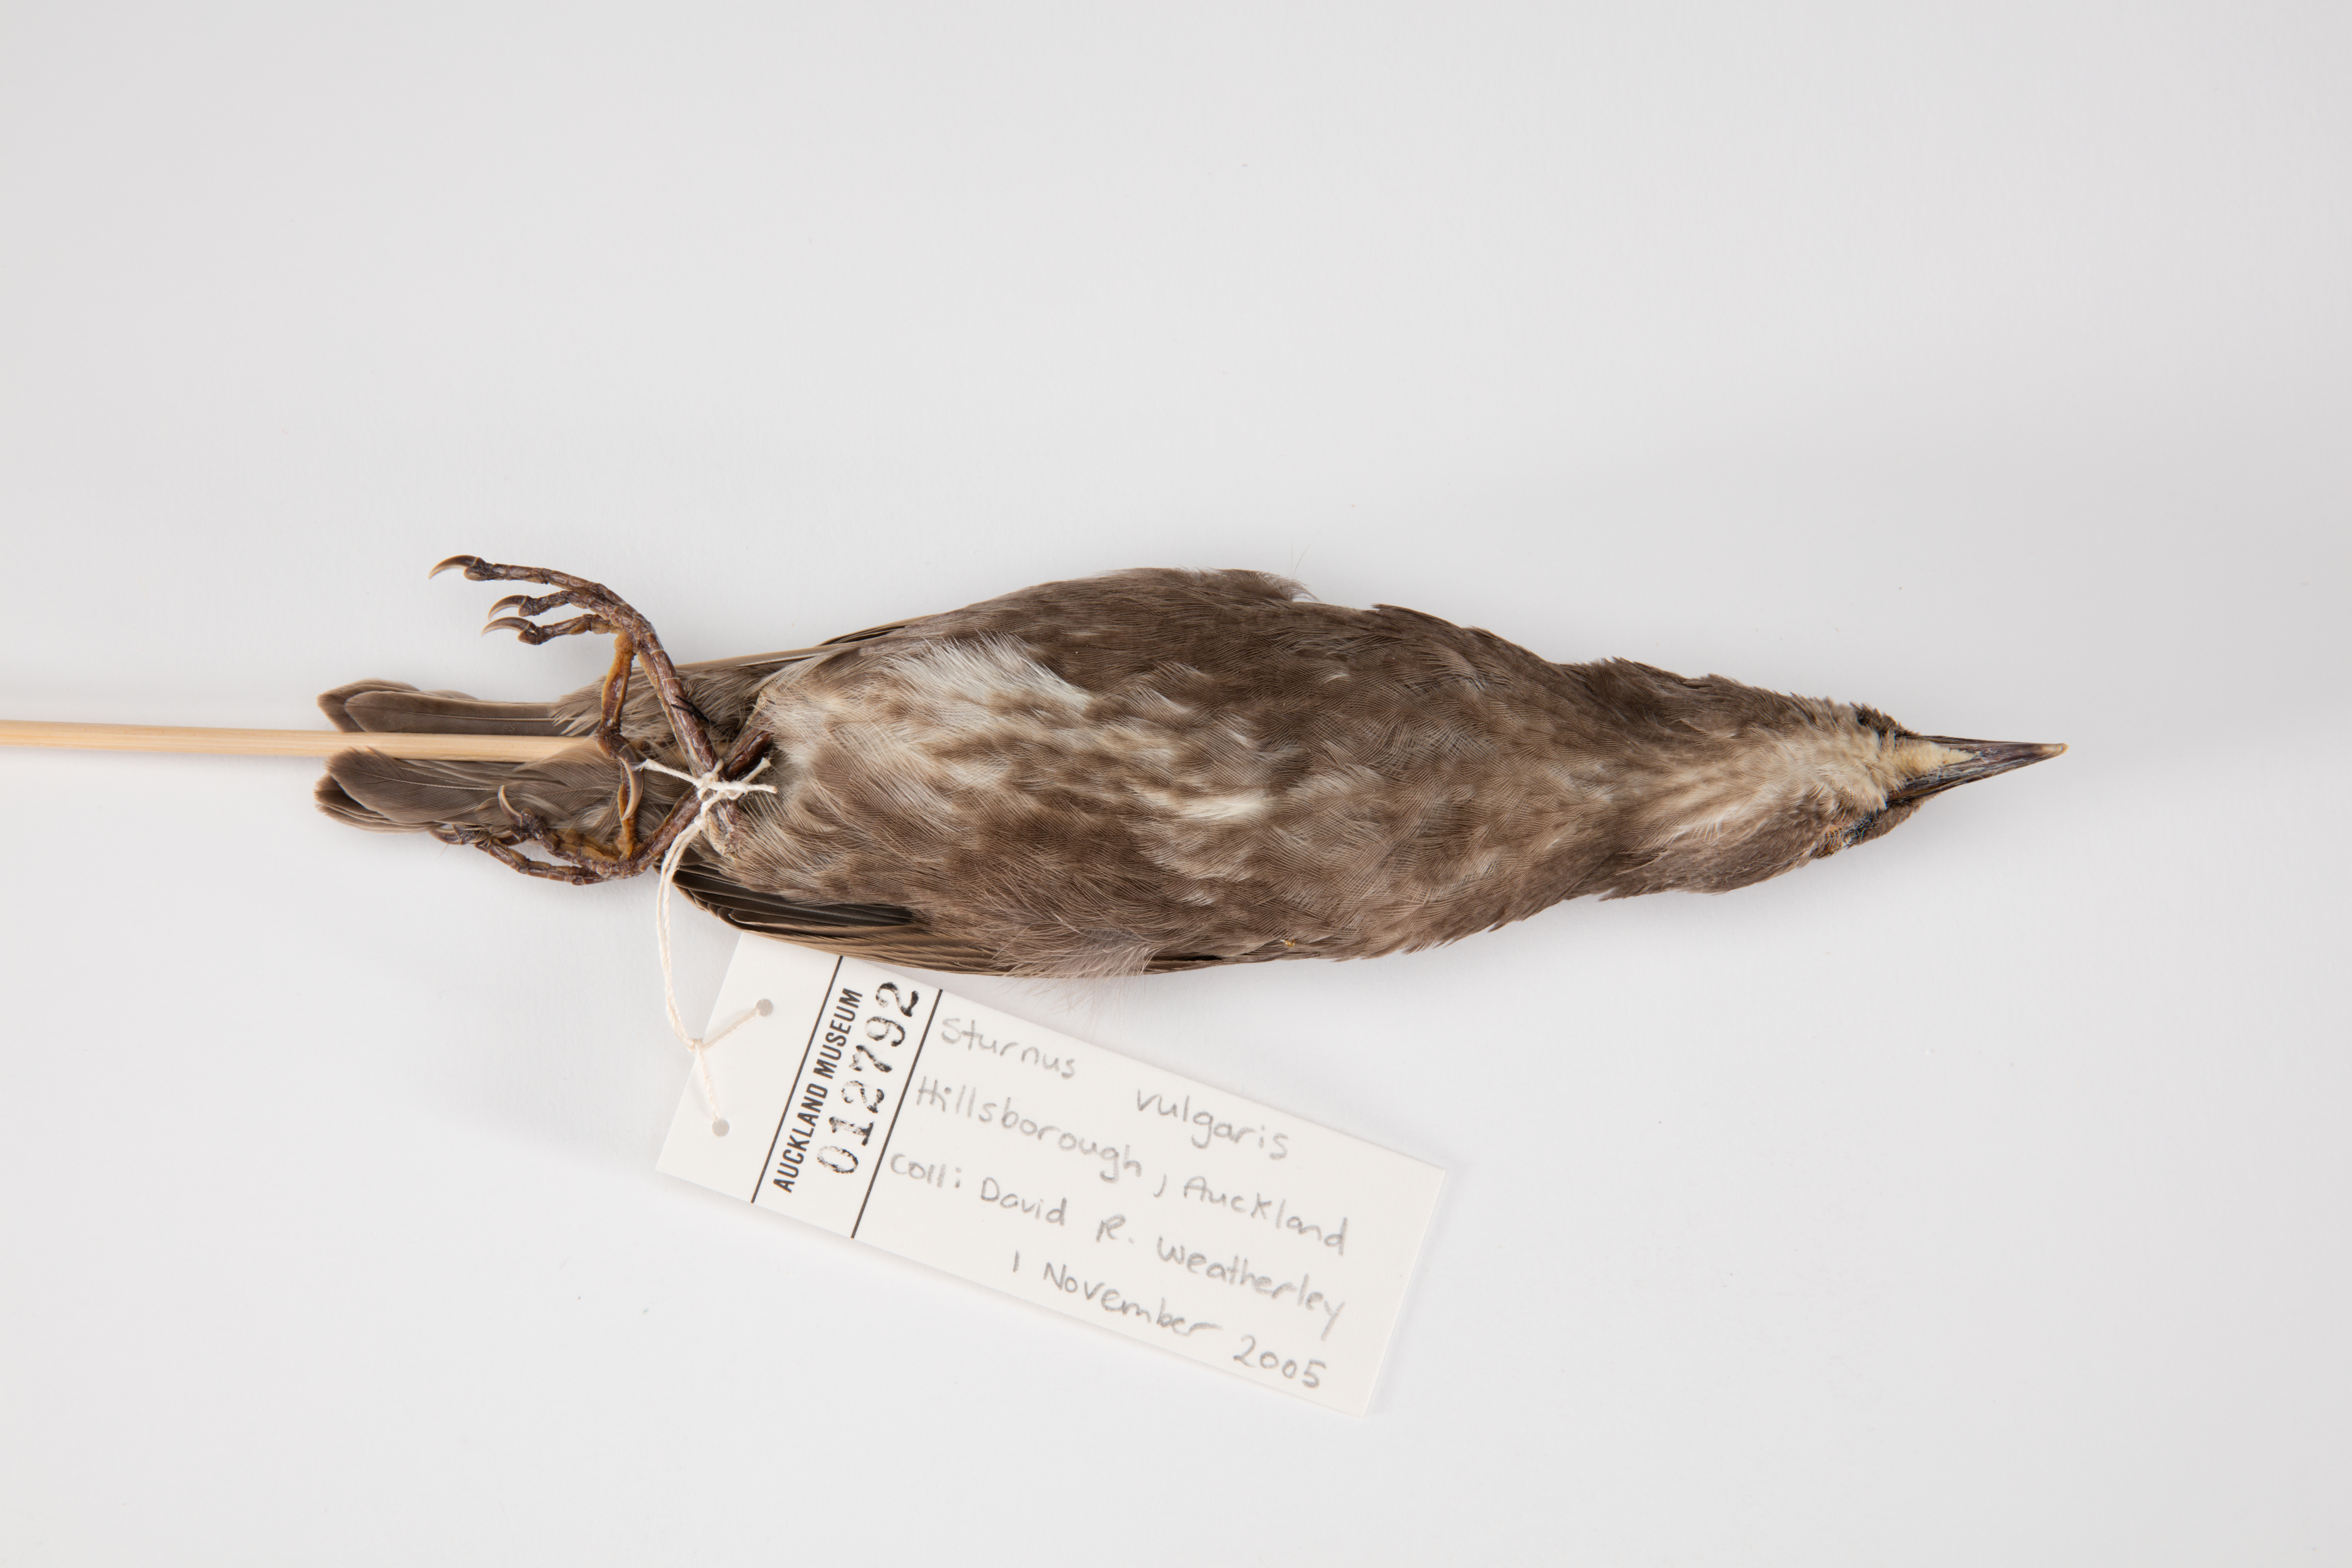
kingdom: Animalia
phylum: Chordata
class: Aves
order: Passeriformes
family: Sturnidae
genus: Sturnus
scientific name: Sturnus vulgaris
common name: Common starling
